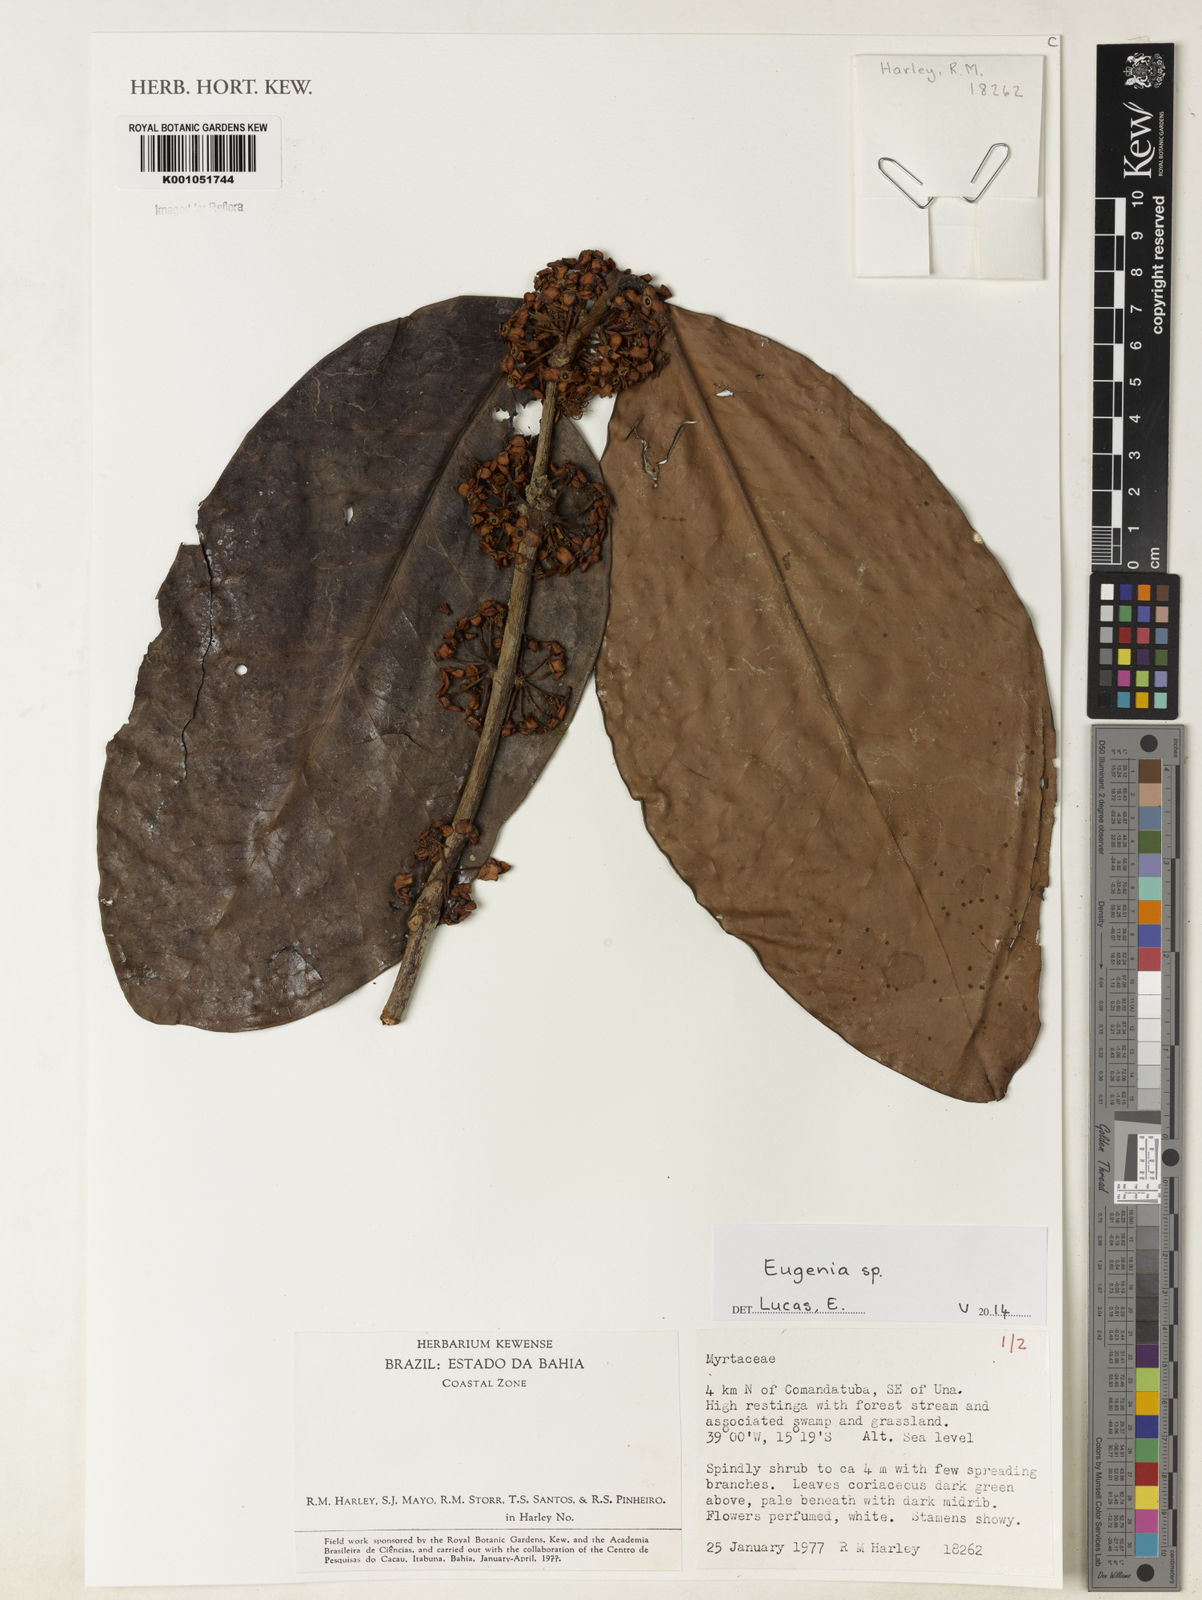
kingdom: Plantae
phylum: Tracheophyta
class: Magnoliopsida
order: Myrtales
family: Myrtaceae
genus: Eugenia
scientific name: Eugenia unana
